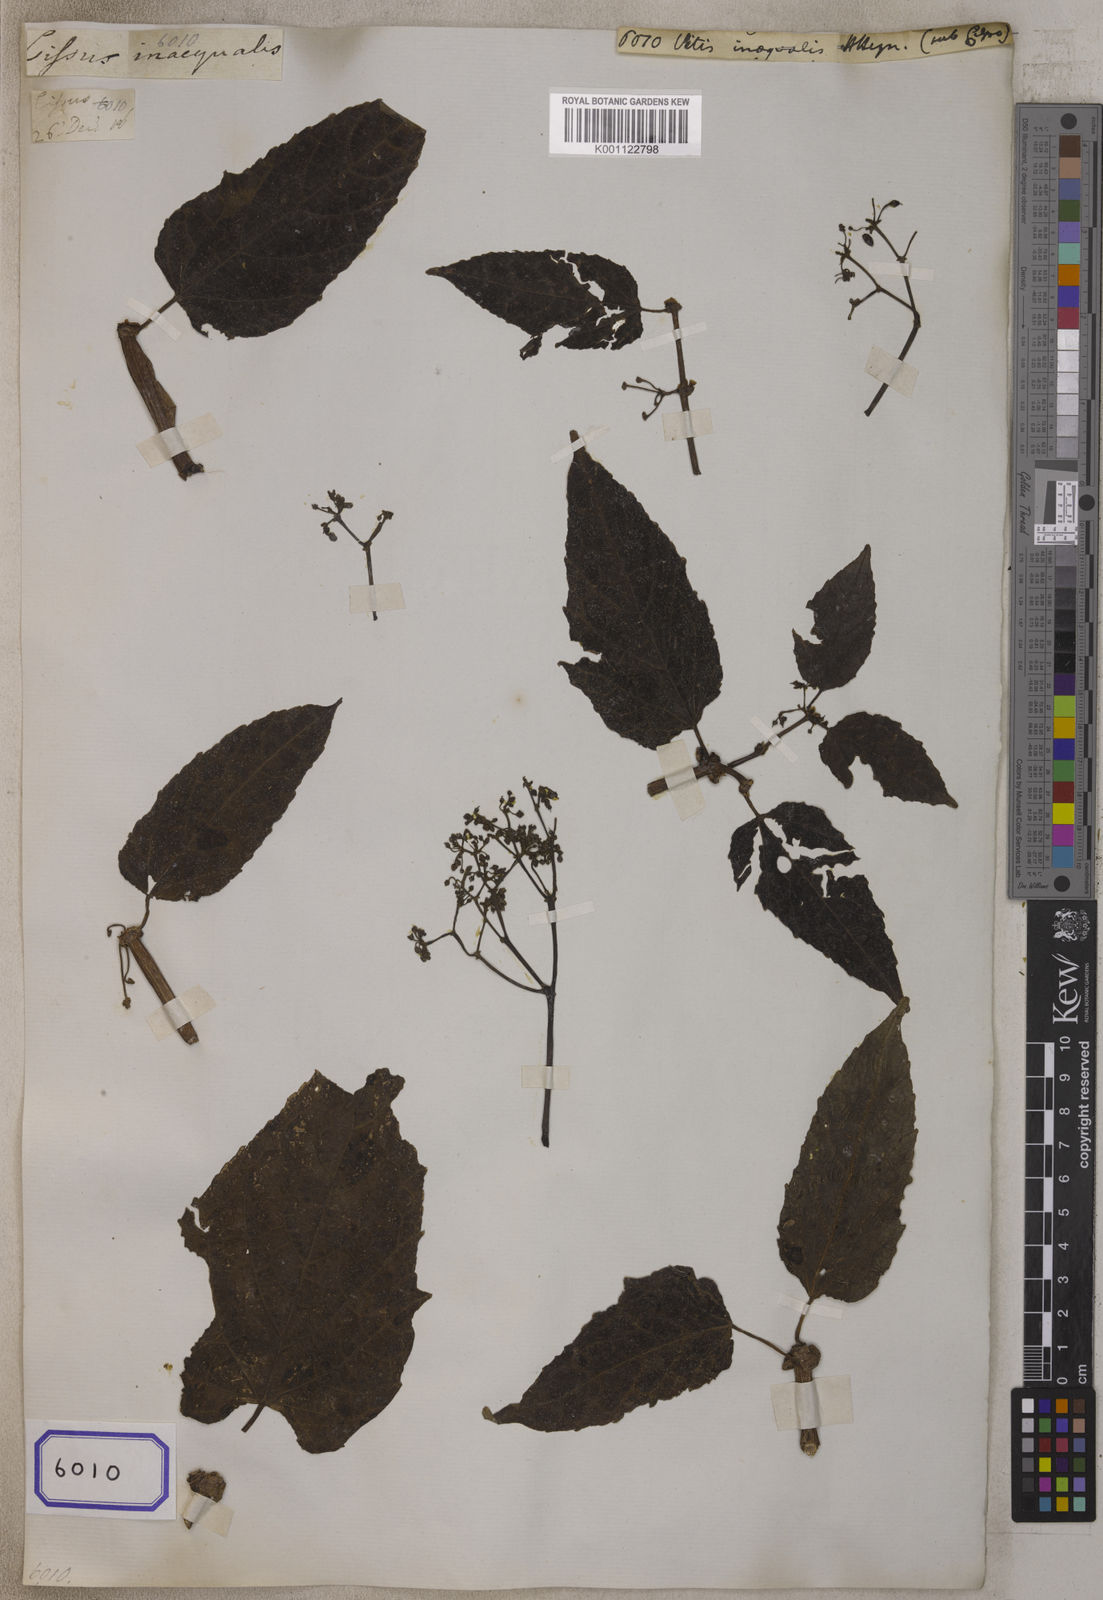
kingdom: Plantae
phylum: Tracheophyta
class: Magnoliopsida
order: Vitales
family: Vitaceae
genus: Vitis
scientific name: Vitis
